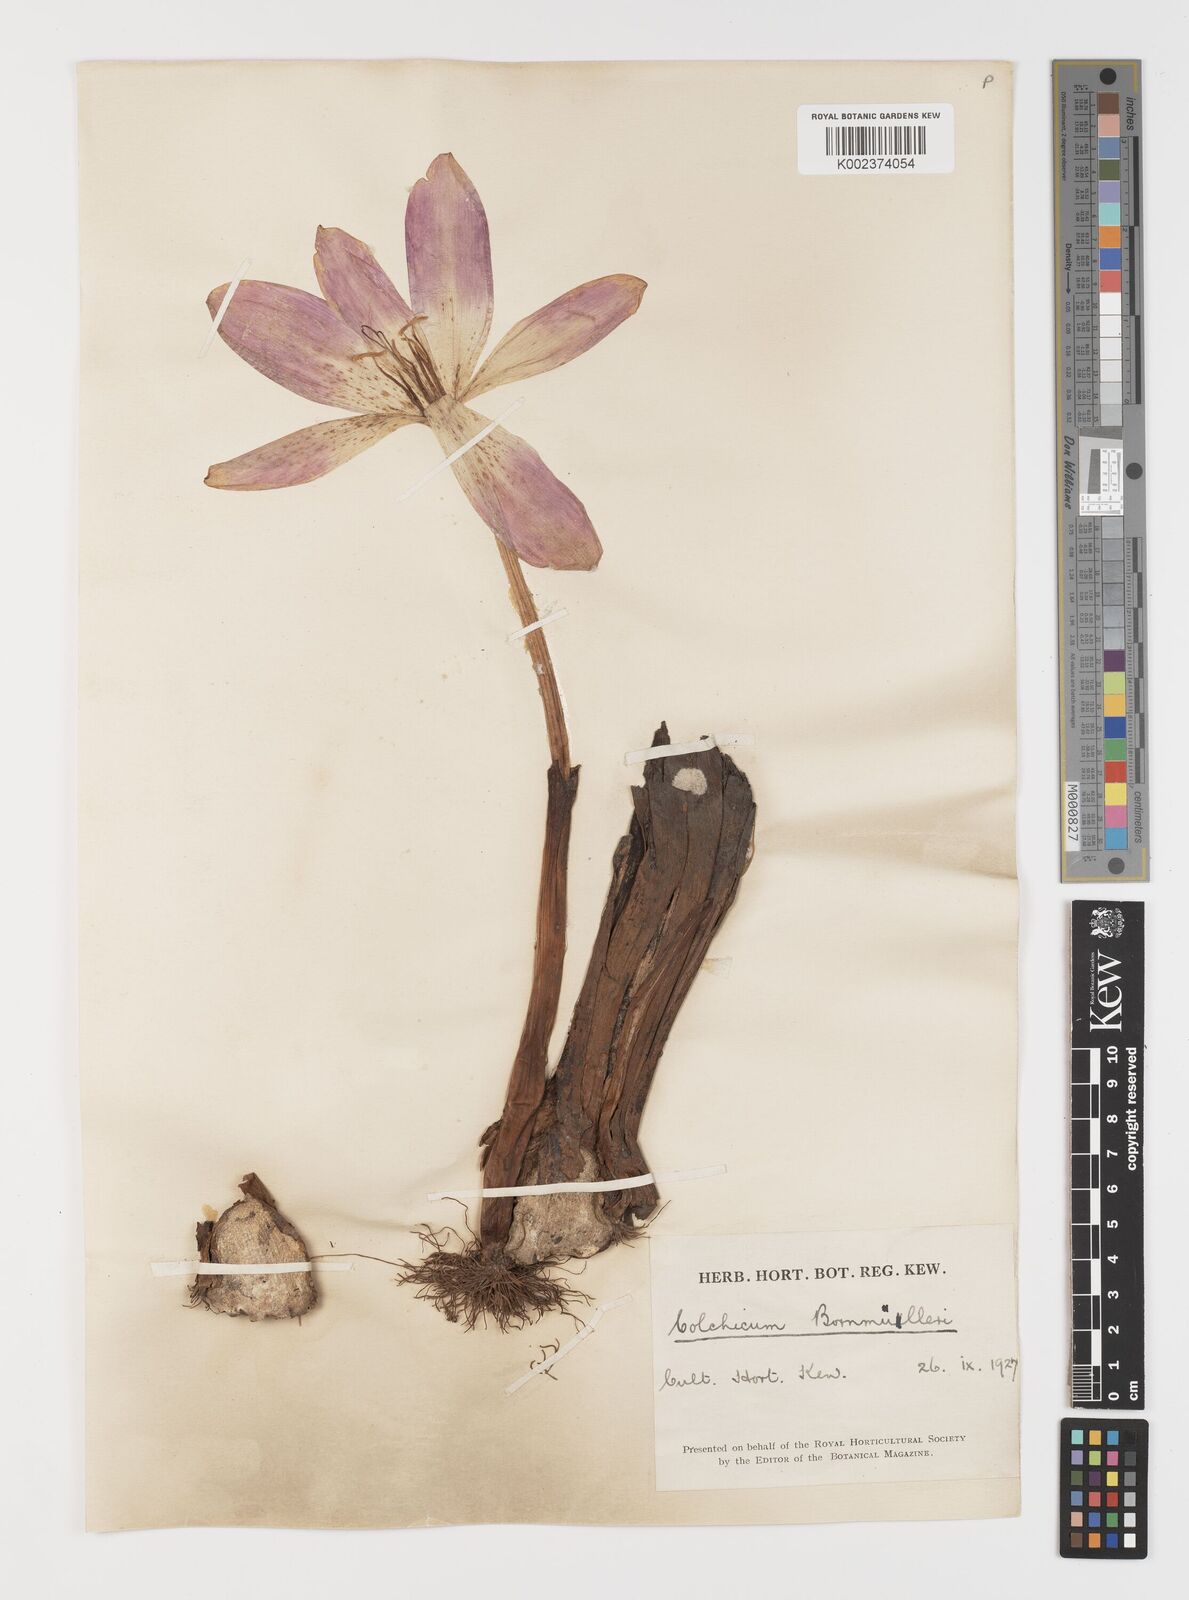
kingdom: Plantae
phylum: Tracheophyta
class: Liliopsida
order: Liliales
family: Colchicaceae
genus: Colchicum
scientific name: Colchicum speciosum
